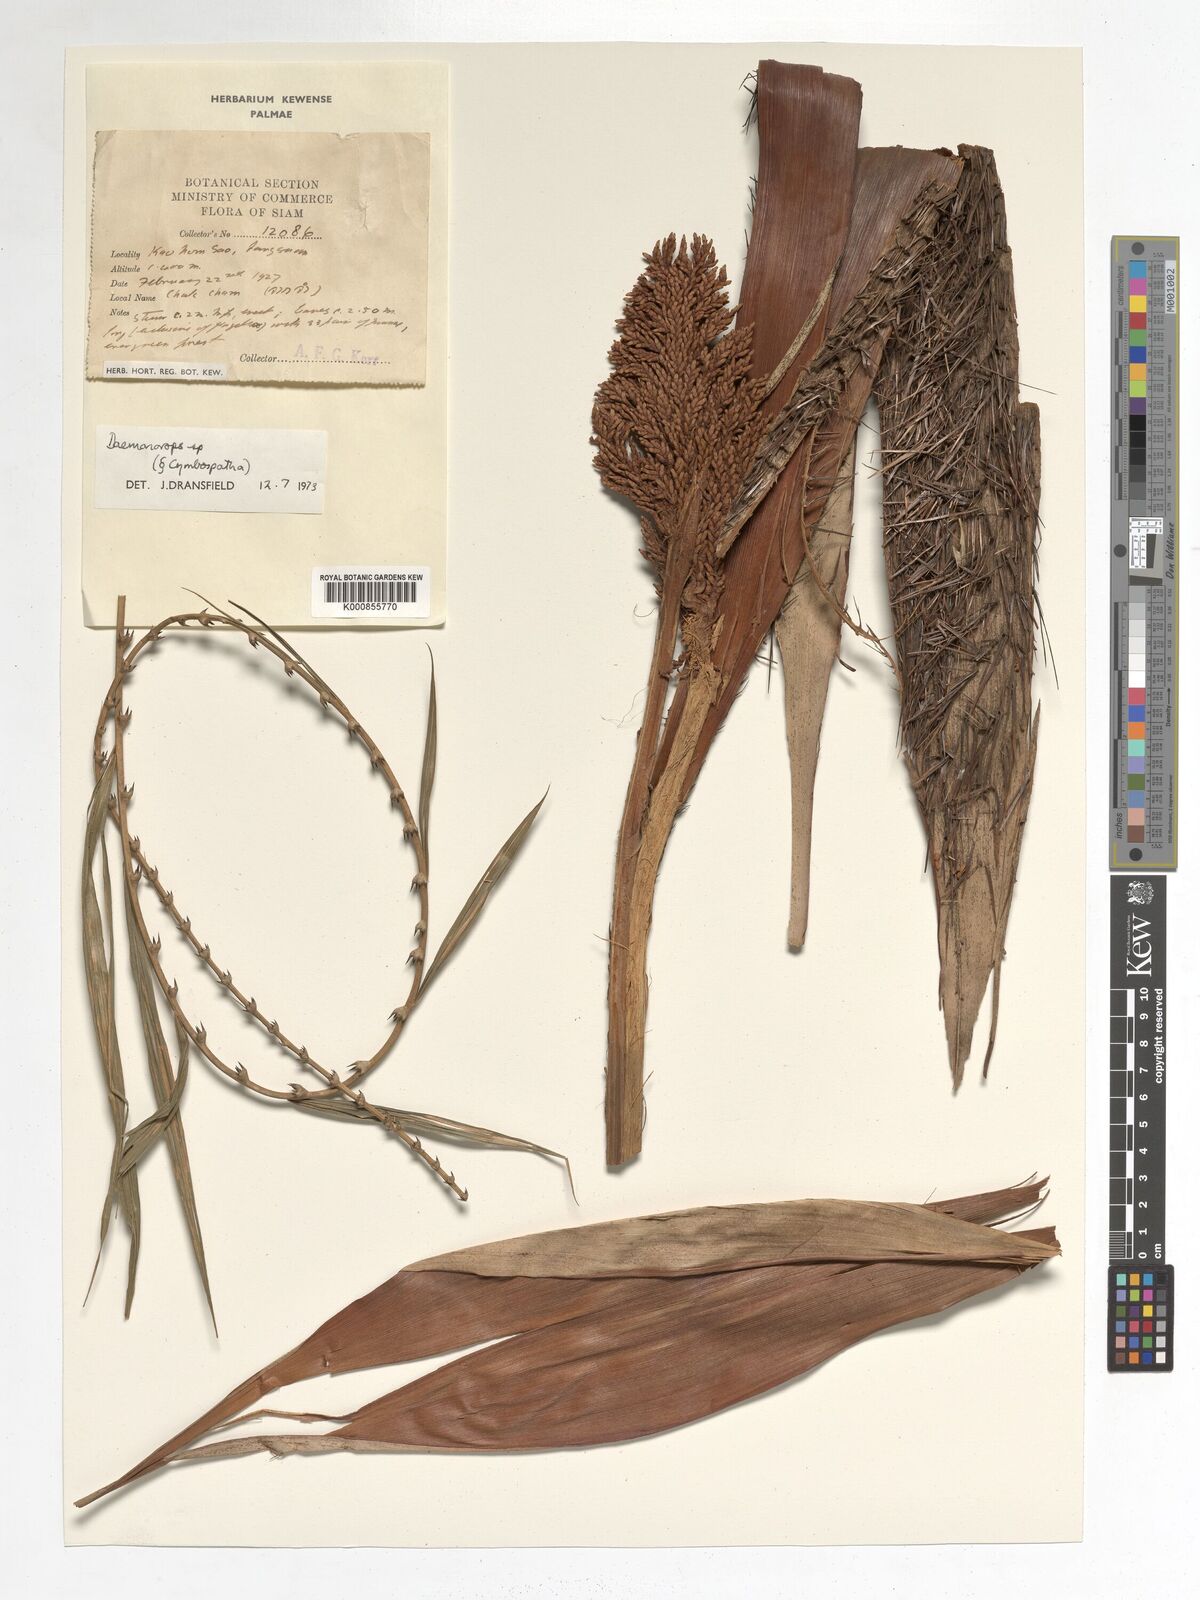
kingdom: Plantae
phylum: Tracheophyta
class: Liliopsida
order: Arecales
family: Arecaceae
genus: Daemonorops
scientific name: Daemonorops
